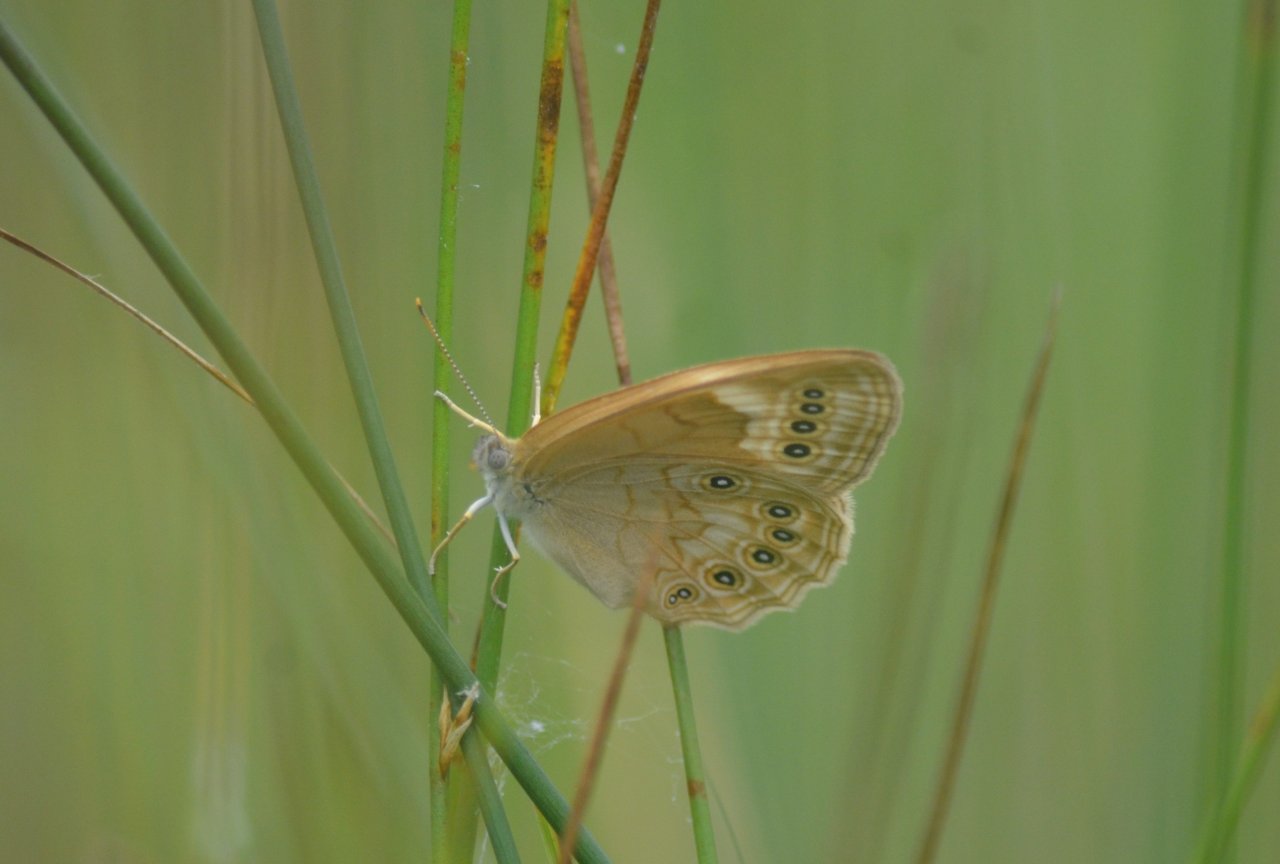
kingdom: Animalia
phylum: Arthropoda
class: Insecta
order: Lepidoptera
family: Nymphalidae
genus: Lethe
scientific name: Lethe eurydice
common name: Eyed Brown
